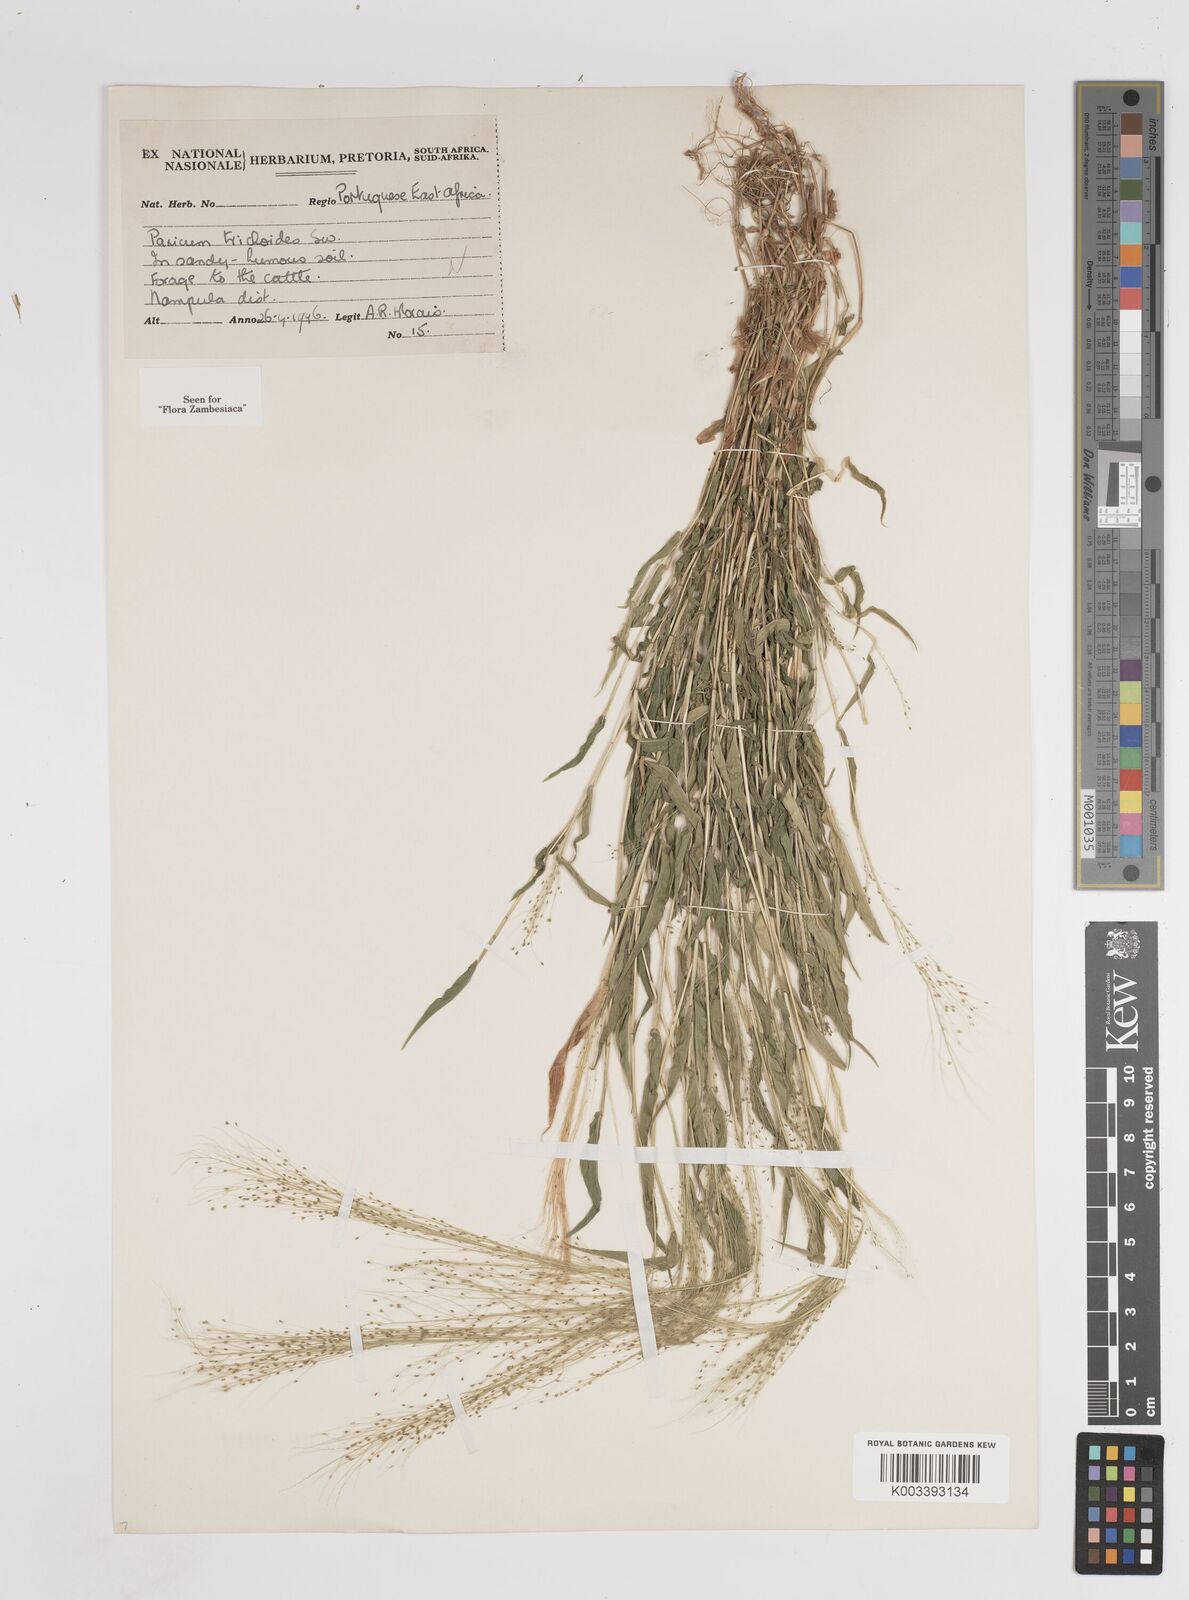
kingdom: Plantae
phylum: Tracheophyta
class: Liliopsida
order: Poales
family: Poaceae
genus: Panicum
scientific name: Panicum trichoides
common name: Tickle grass
